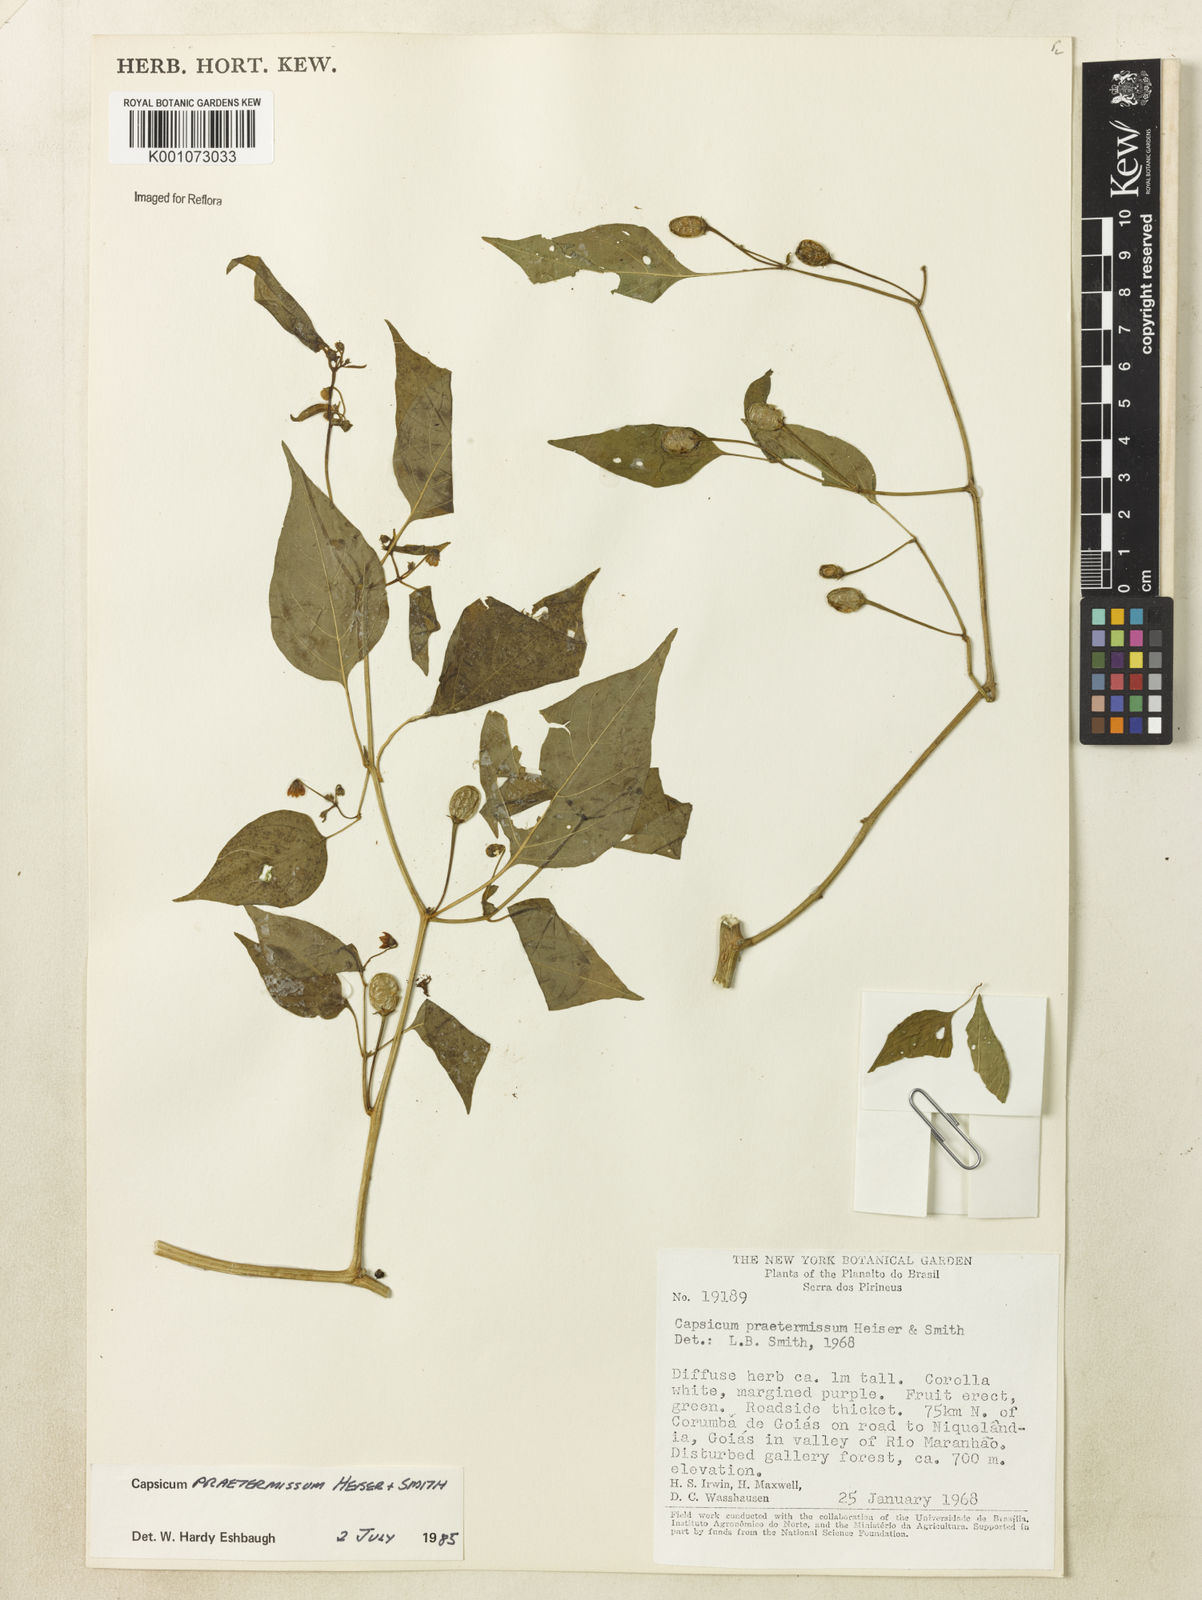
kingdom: Plantae
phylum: Tracheophyta
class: Magnoliopsida
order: Solanales
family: Solanaceae
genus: Capsicum
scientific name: Capsicum rabenii
